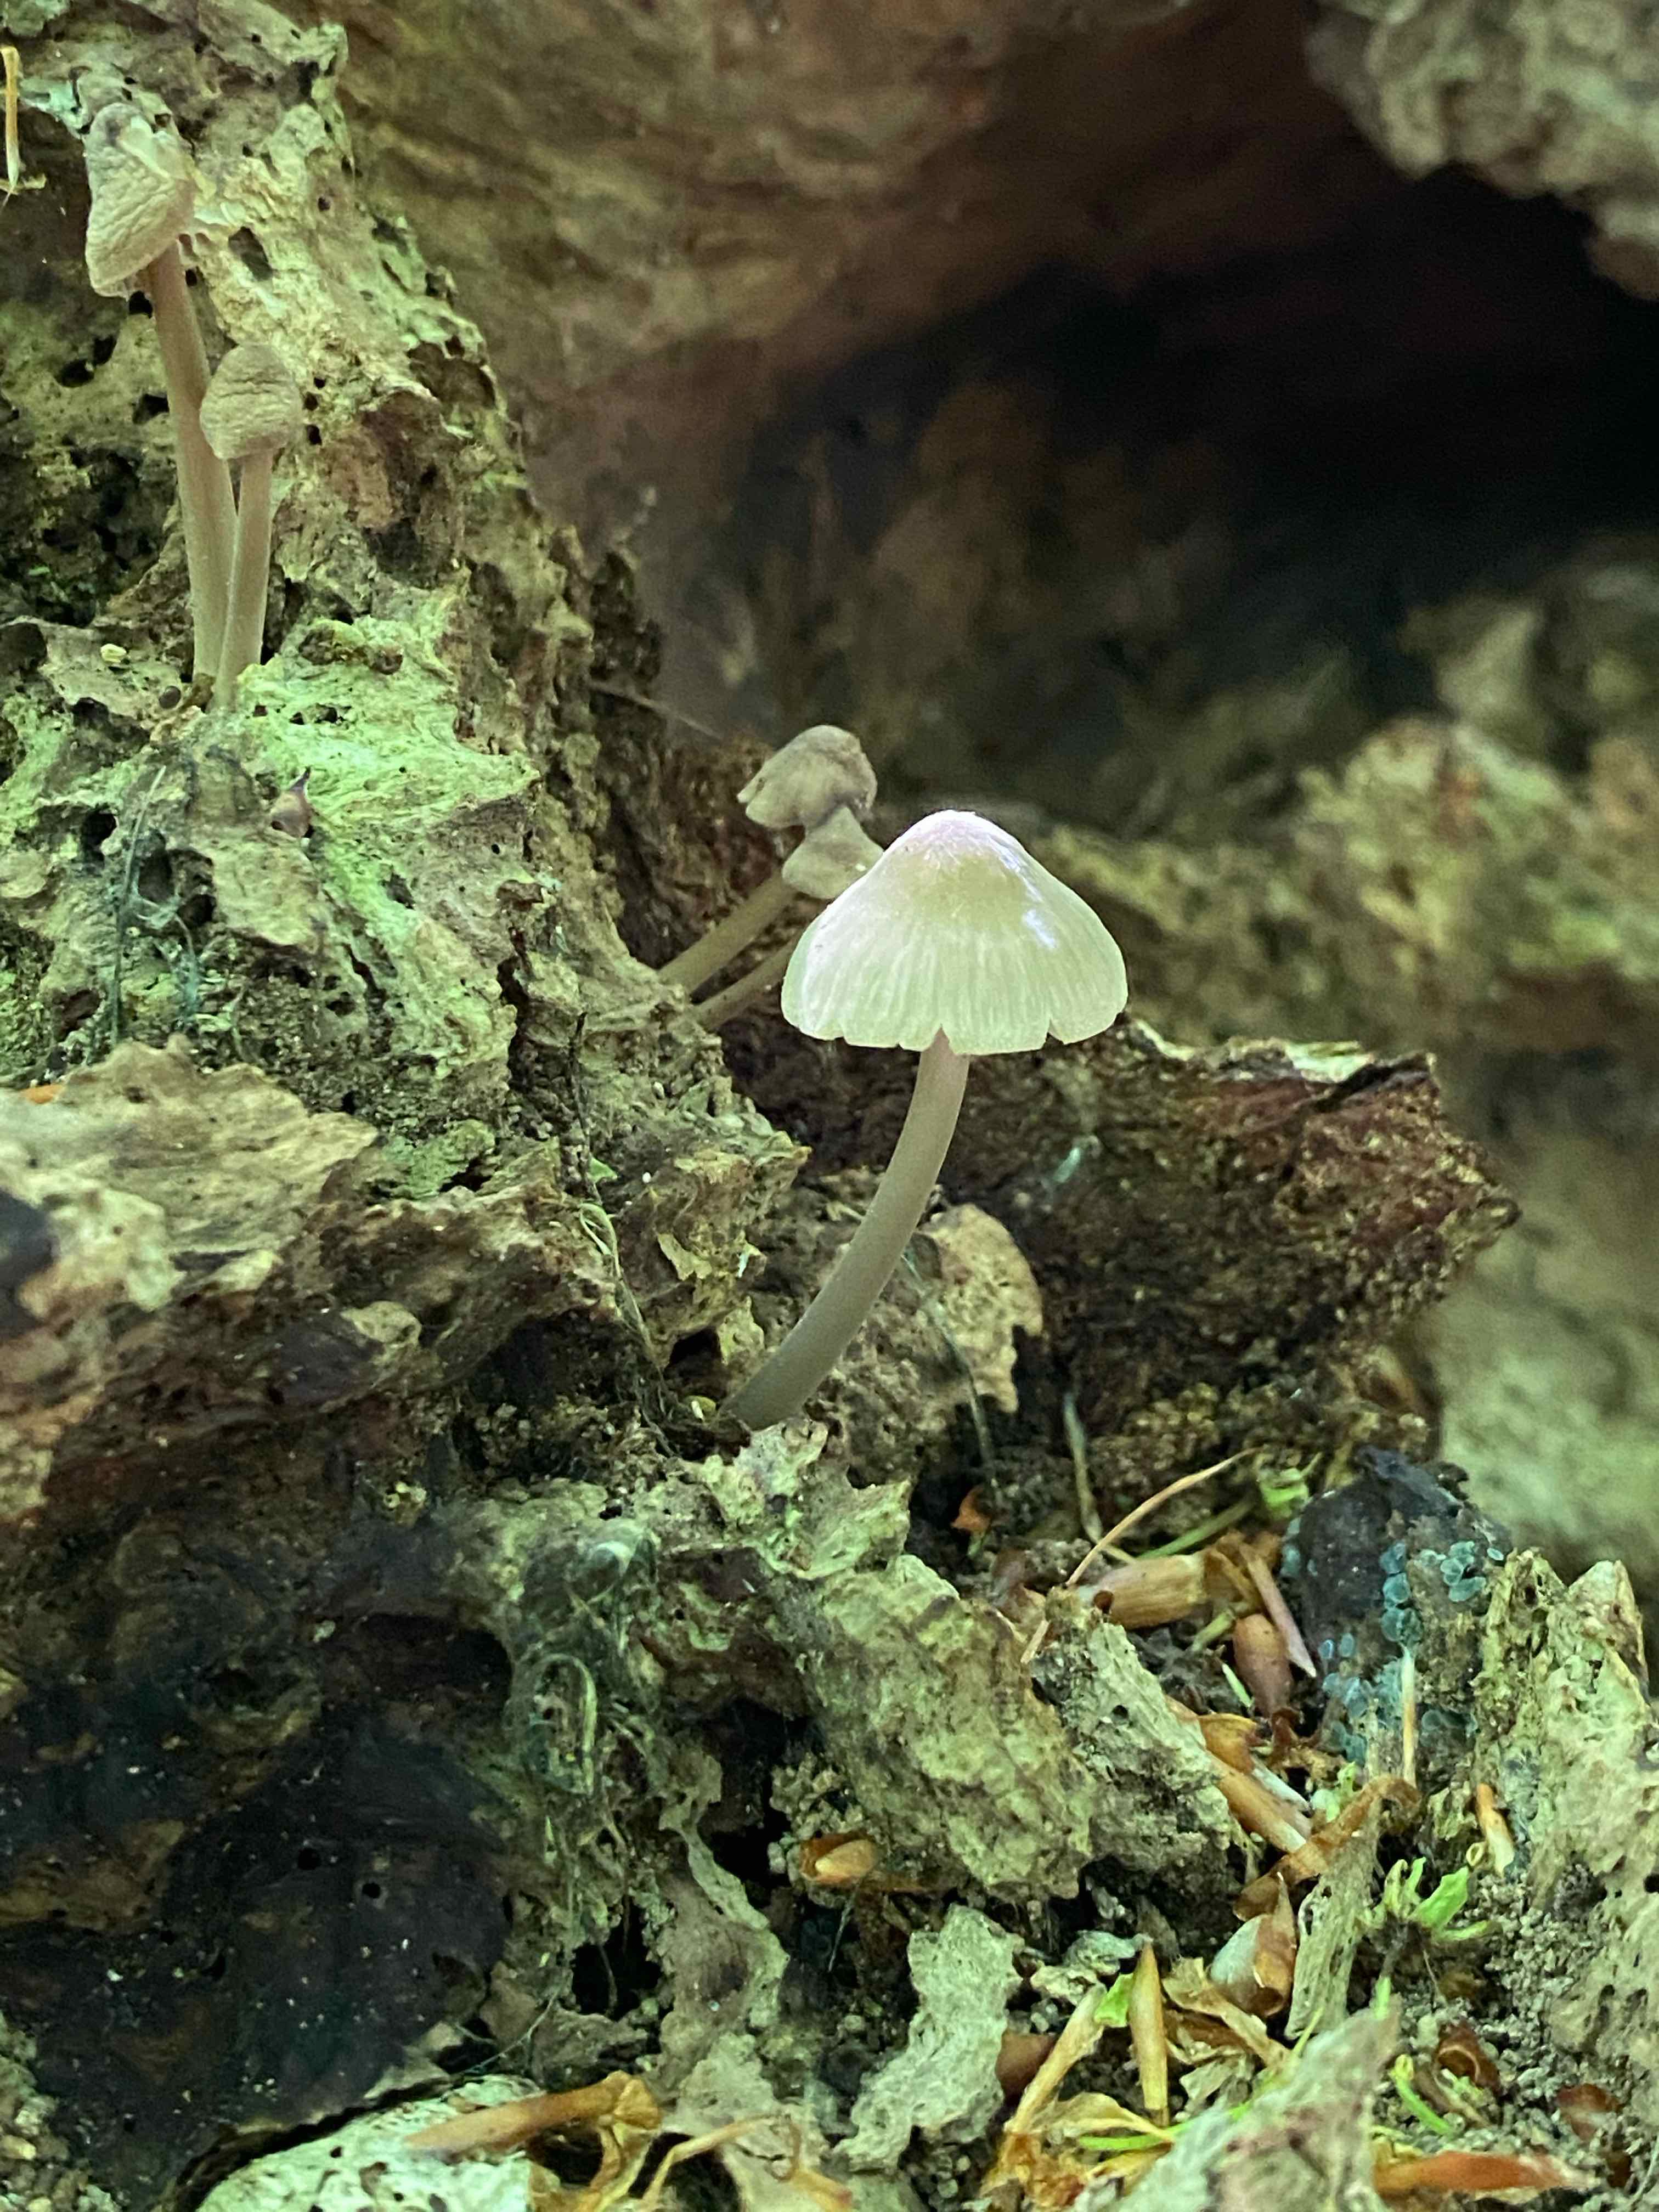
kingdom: Fungi
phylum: Basidiomycota
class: Agaricomycetes
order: Agaricales
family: Mycenaceae
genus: Mycena
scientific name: Mycena galericulata
